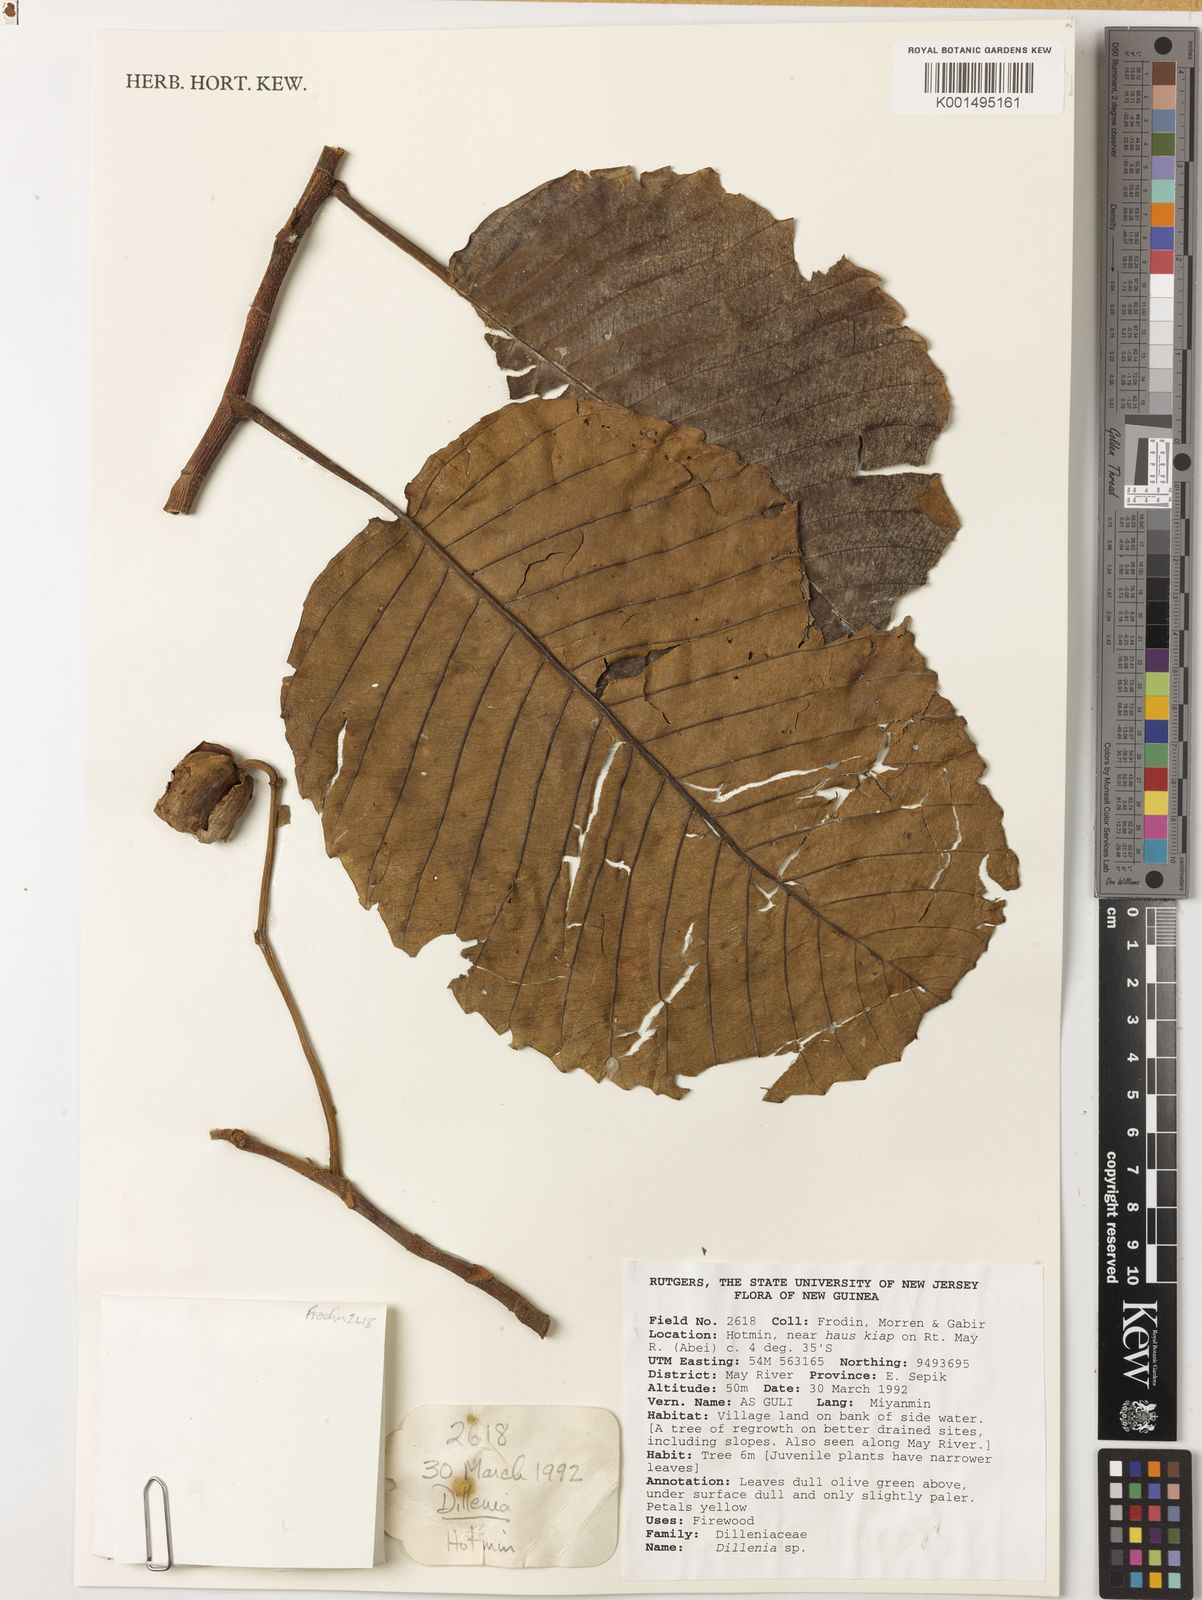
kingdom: Plantae
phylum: Tracheophyta
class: Magnoliopsida
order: Dilleniales
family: Dilleniaceae
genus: Dillenia
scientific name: Dillenia
